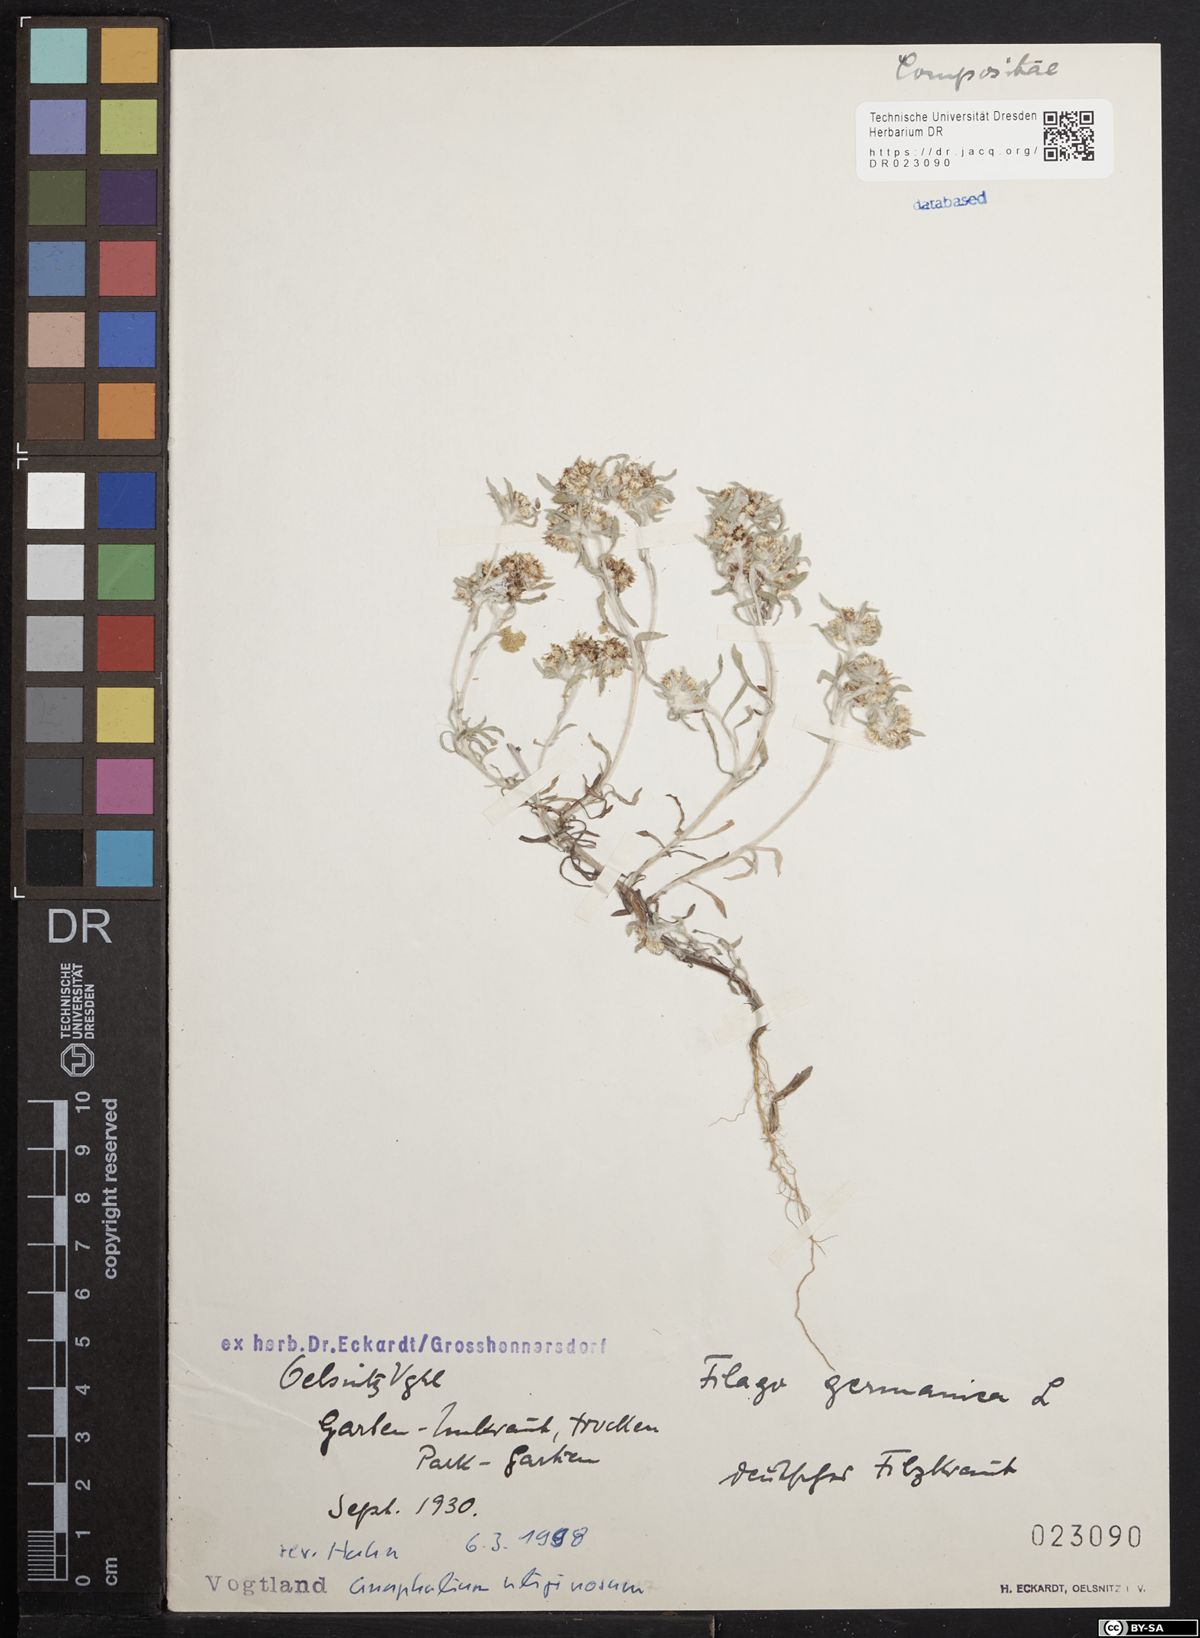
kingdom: Plantae
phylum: Tracheophyta
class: Magnoliopsida
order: Asterales
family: Asteraceae
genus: Filago
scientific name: Filago germanica
